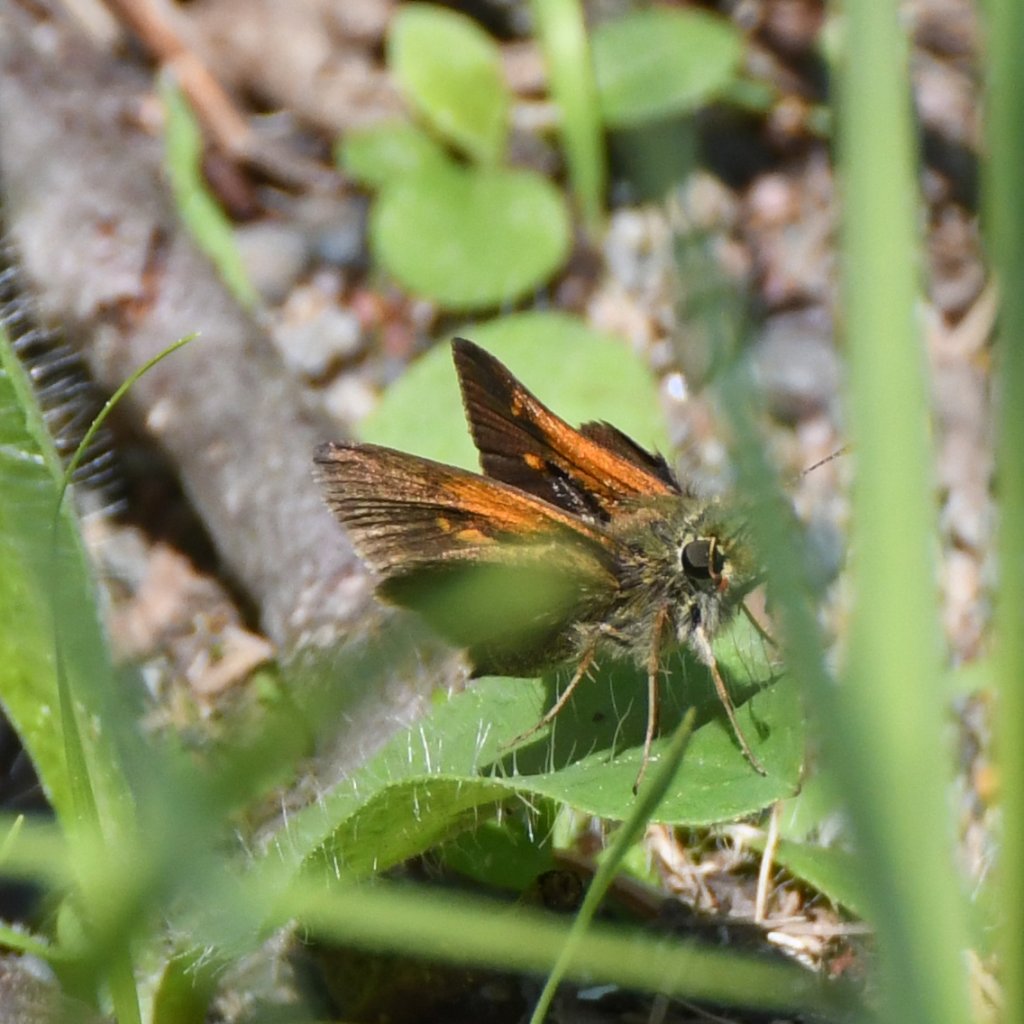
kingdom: Animalia
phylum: Arthropoda
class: Insecta
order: Lepidoptera
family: Hesperiidae
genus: Polites
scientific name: Polites themistocles
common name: Tawny-edged Skipper
